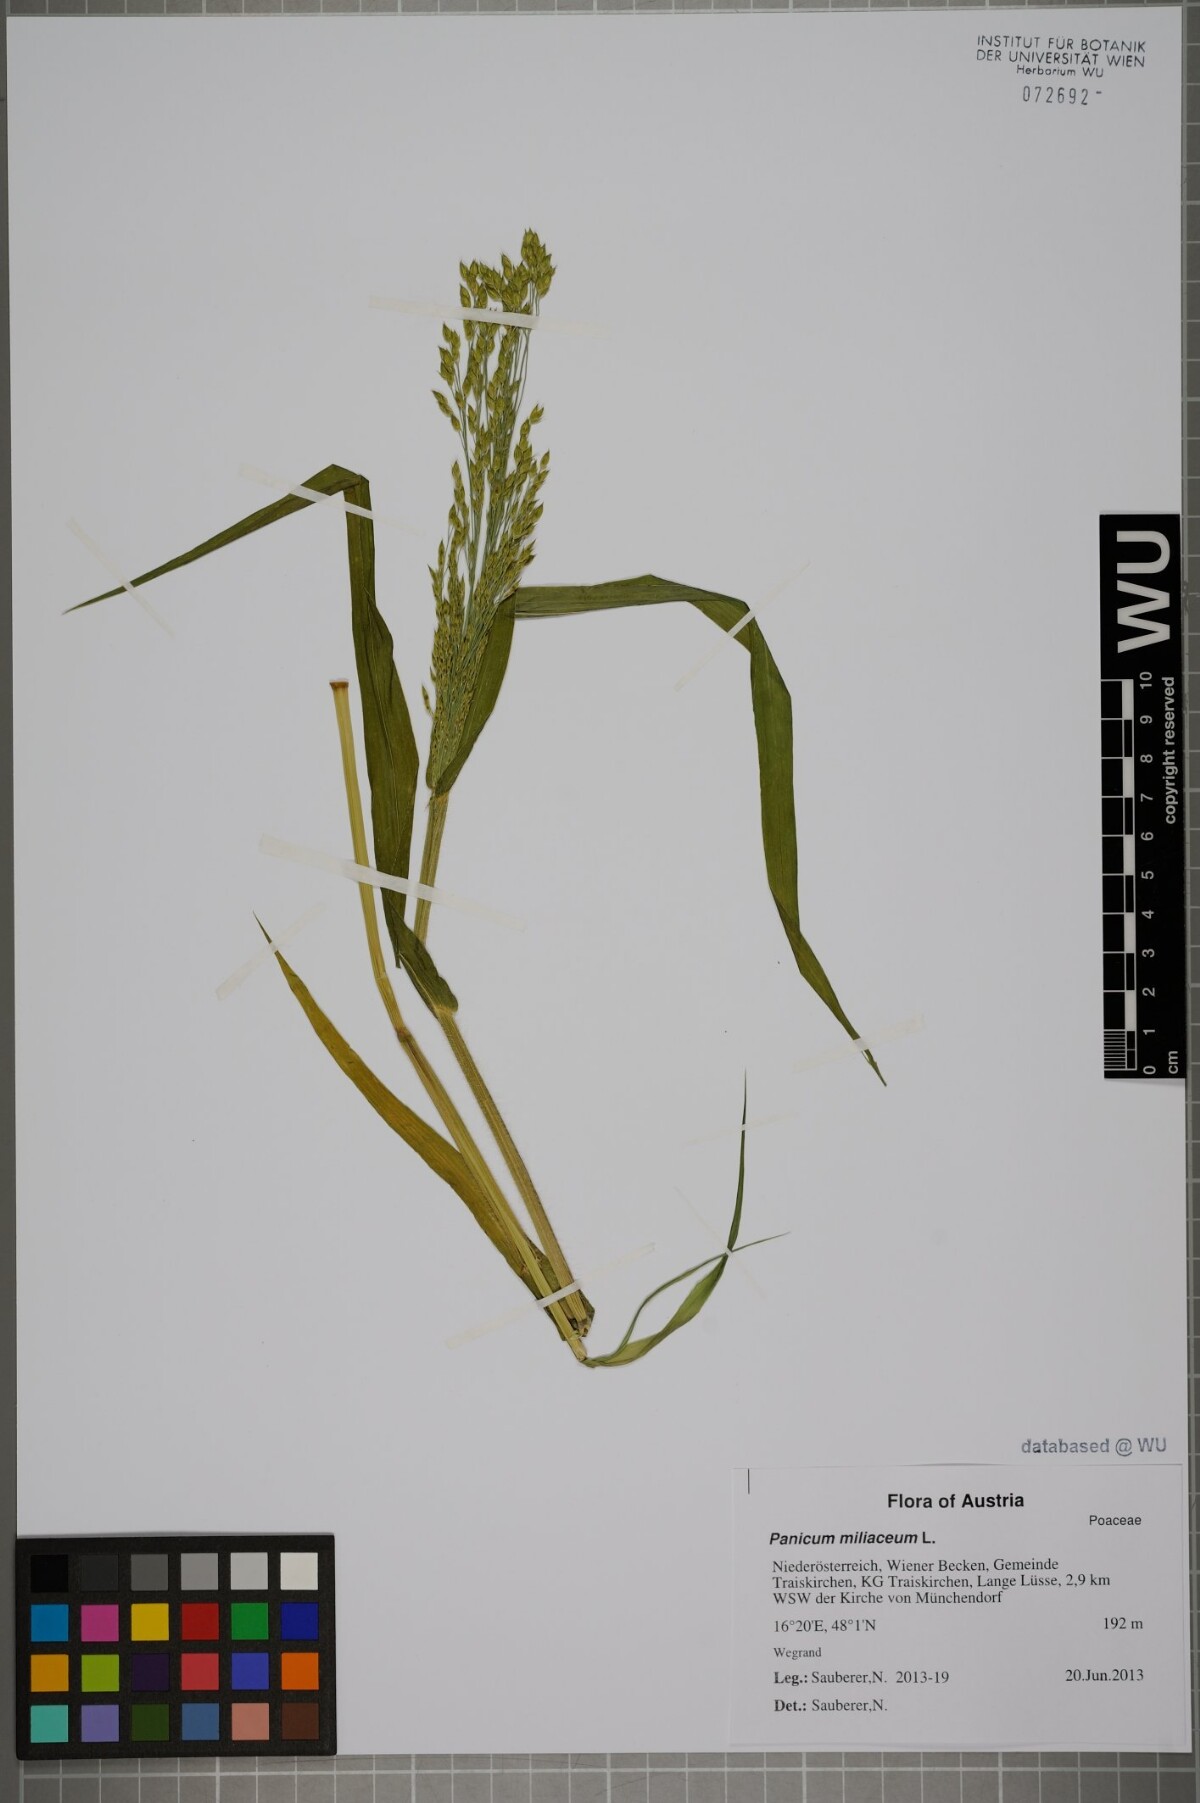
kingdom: Plantae
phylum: Tracheophyta
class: Liliopsida
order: Poales
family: Poaceae
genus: Panicum
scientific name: Panicum miliaceum
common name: Common millet
